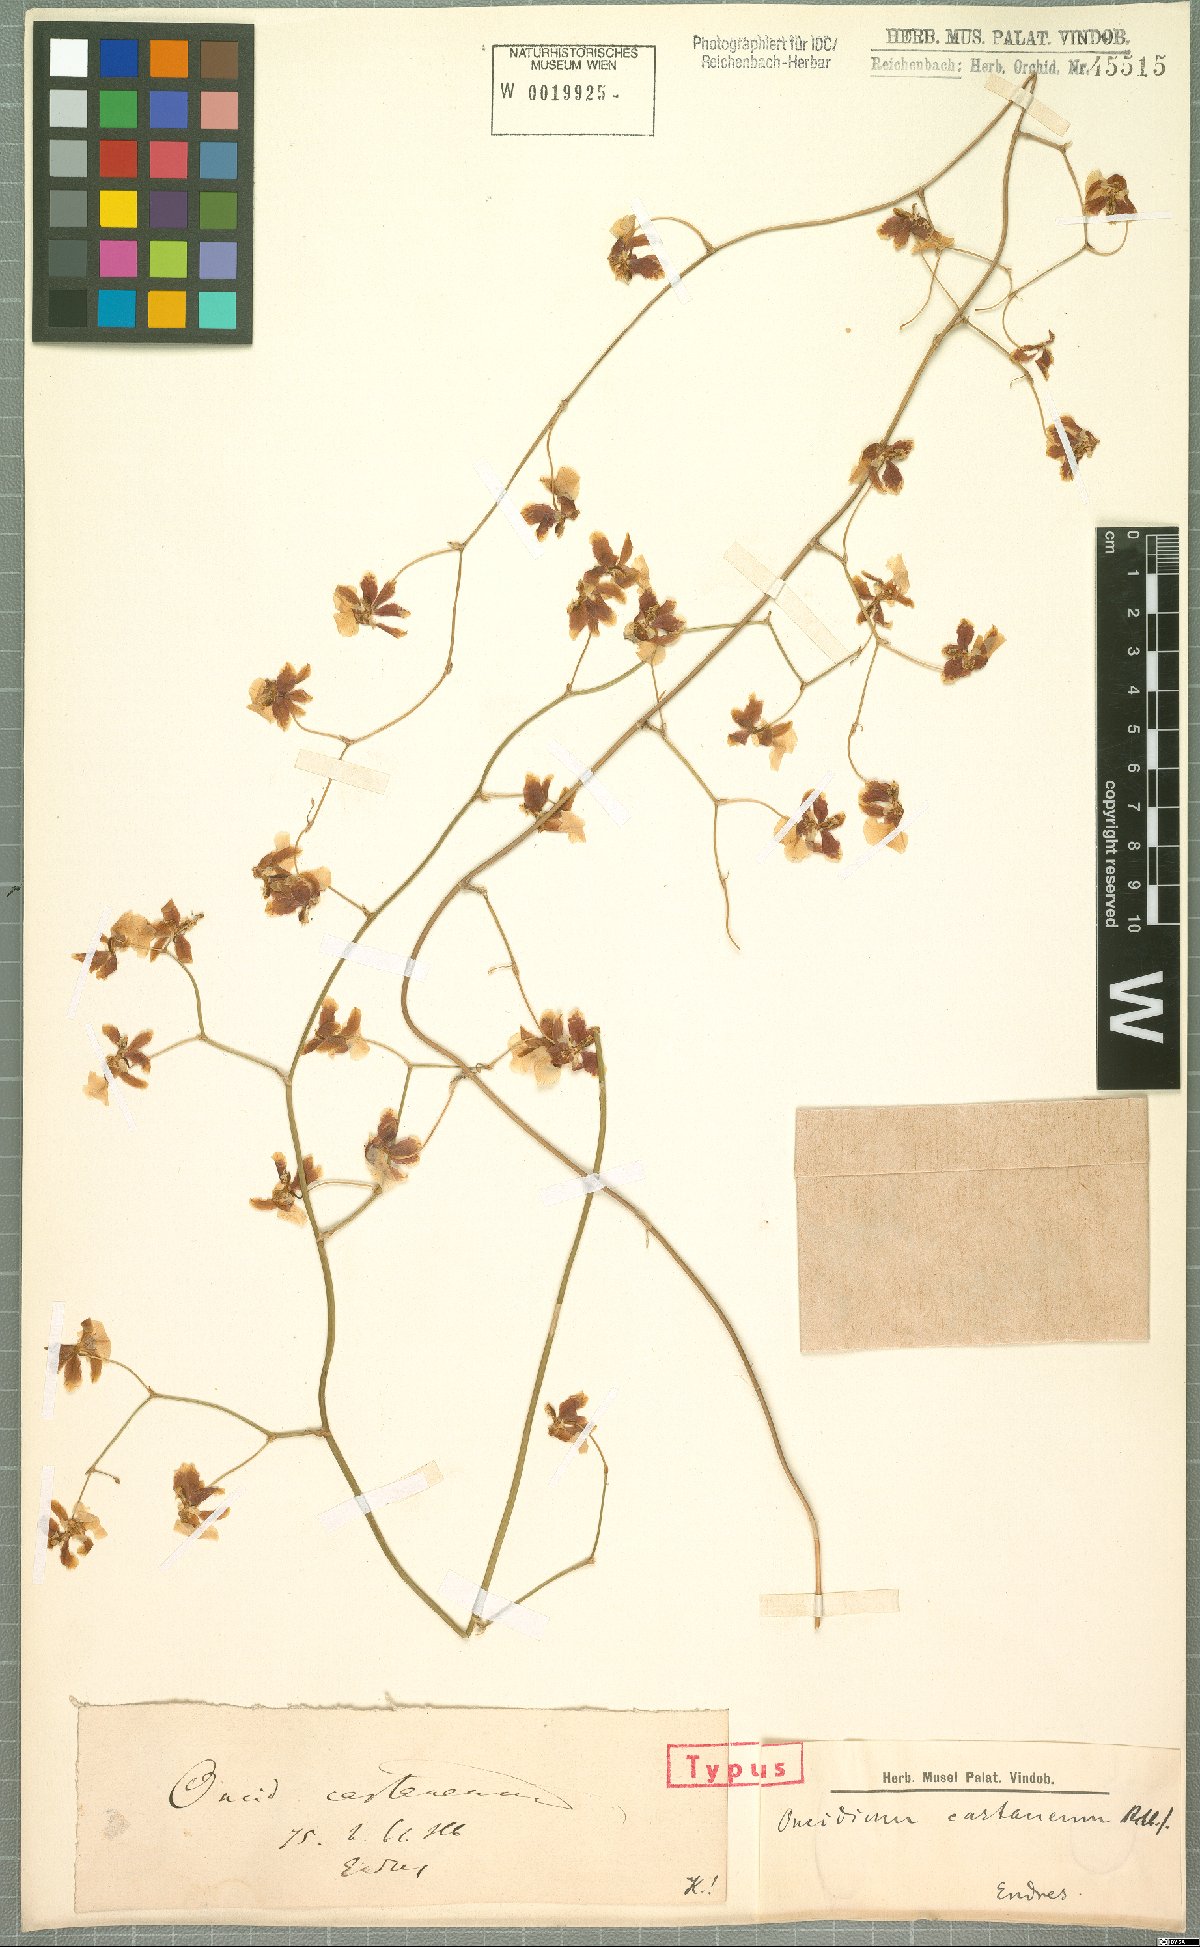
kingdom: Plantae
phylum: Tracheophyta
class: Liliopsida
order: Asparagales
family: Orchidaceae
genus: Oncidium
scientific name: Oncidium dichromaticum
